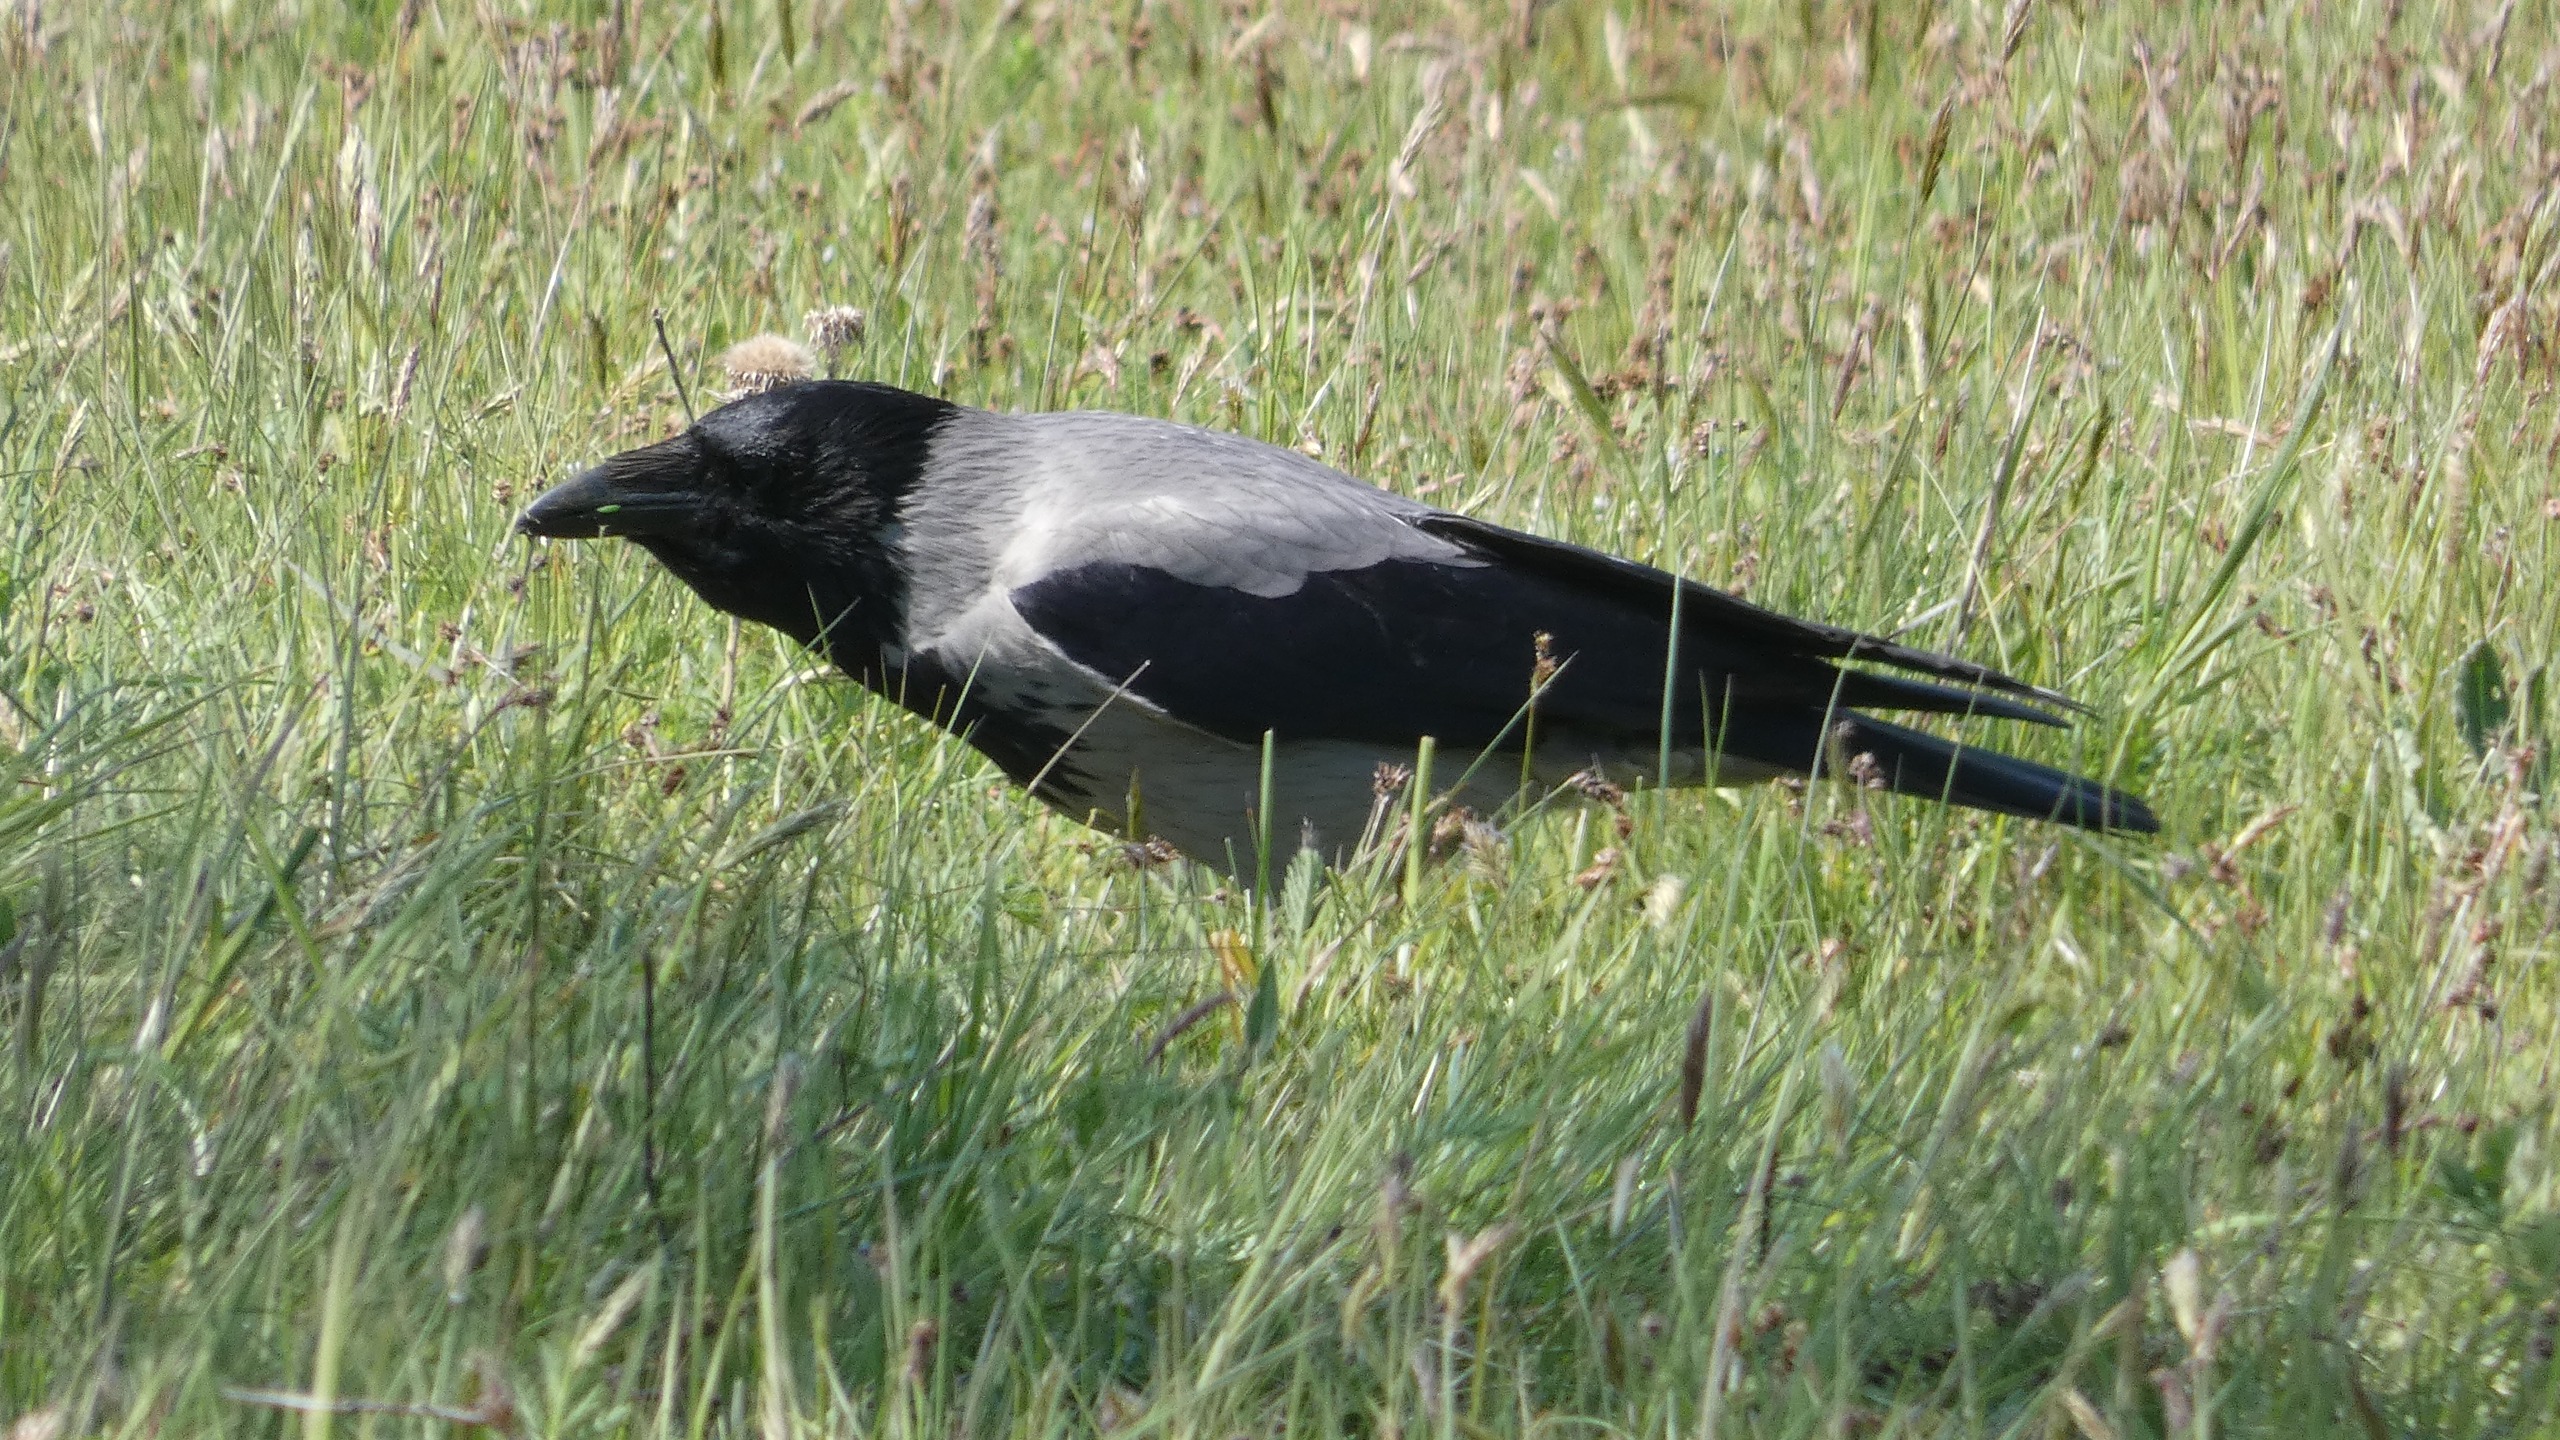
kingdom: Animalia
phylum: Chordata
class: Aves
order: Passeriformes
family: Corvidae
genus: Corvus
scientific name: Corvus cornix
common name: Gråkrage
